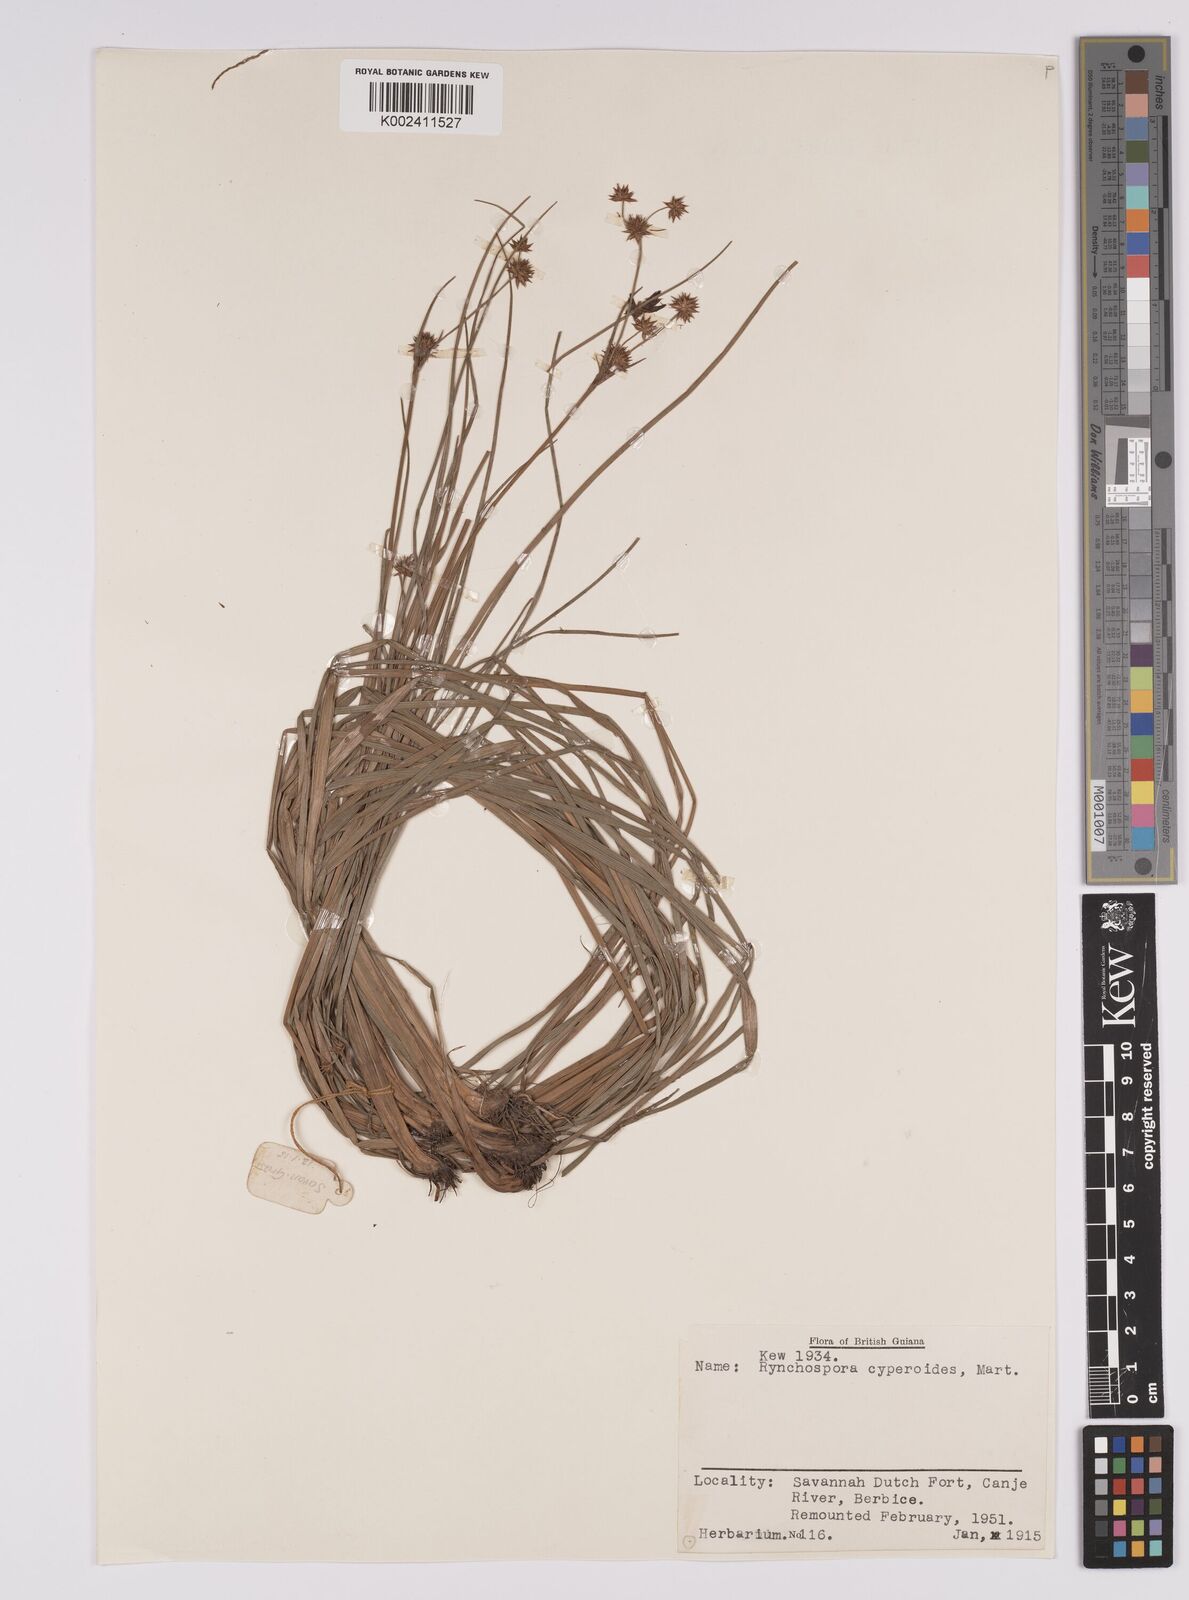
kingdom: Plantae
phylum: Tracheophyta
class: Liliopsida
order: Poales
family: Cyperaceae
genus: Rhynchospora
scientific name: Rhynchospora holoschoenoides
